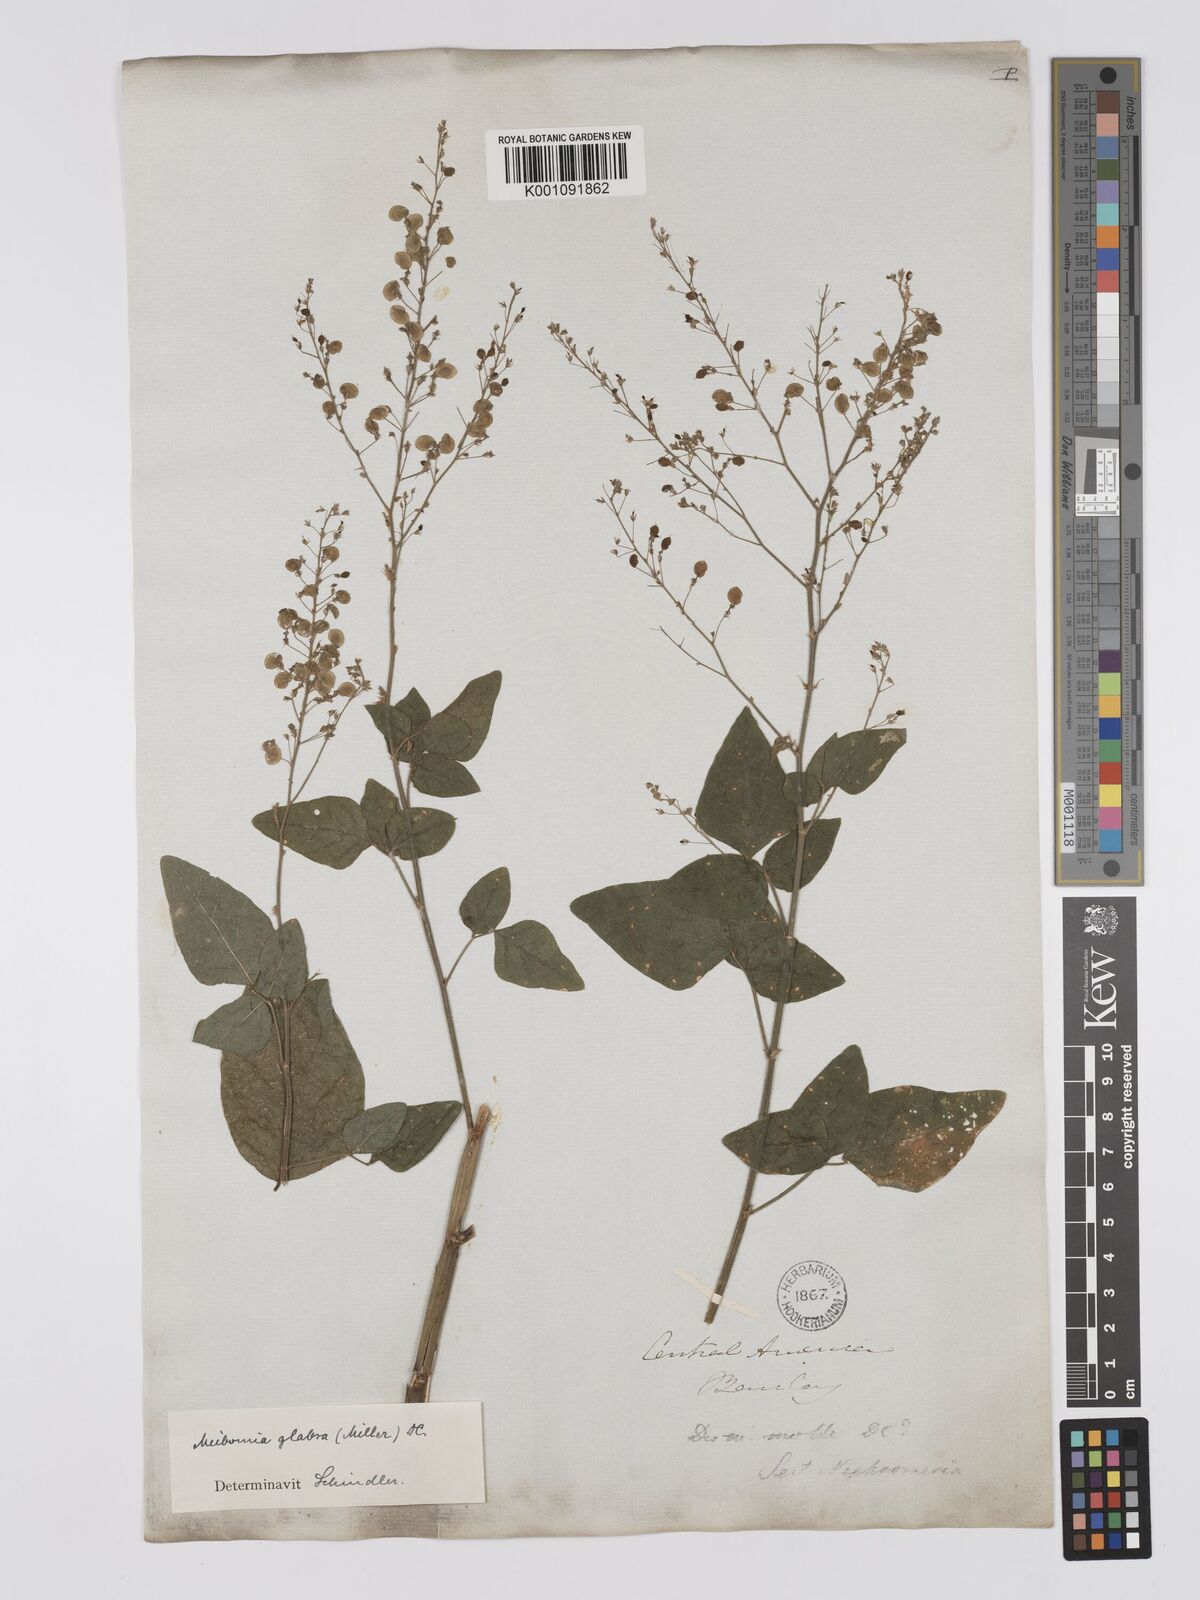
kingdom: Plantae
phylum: Tracheophyta
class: Magnoliopsida
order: Fabales
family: Fabaceae
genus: Desmodium
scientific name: Desmodium glabrum
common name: Zarzabacoa dulce
